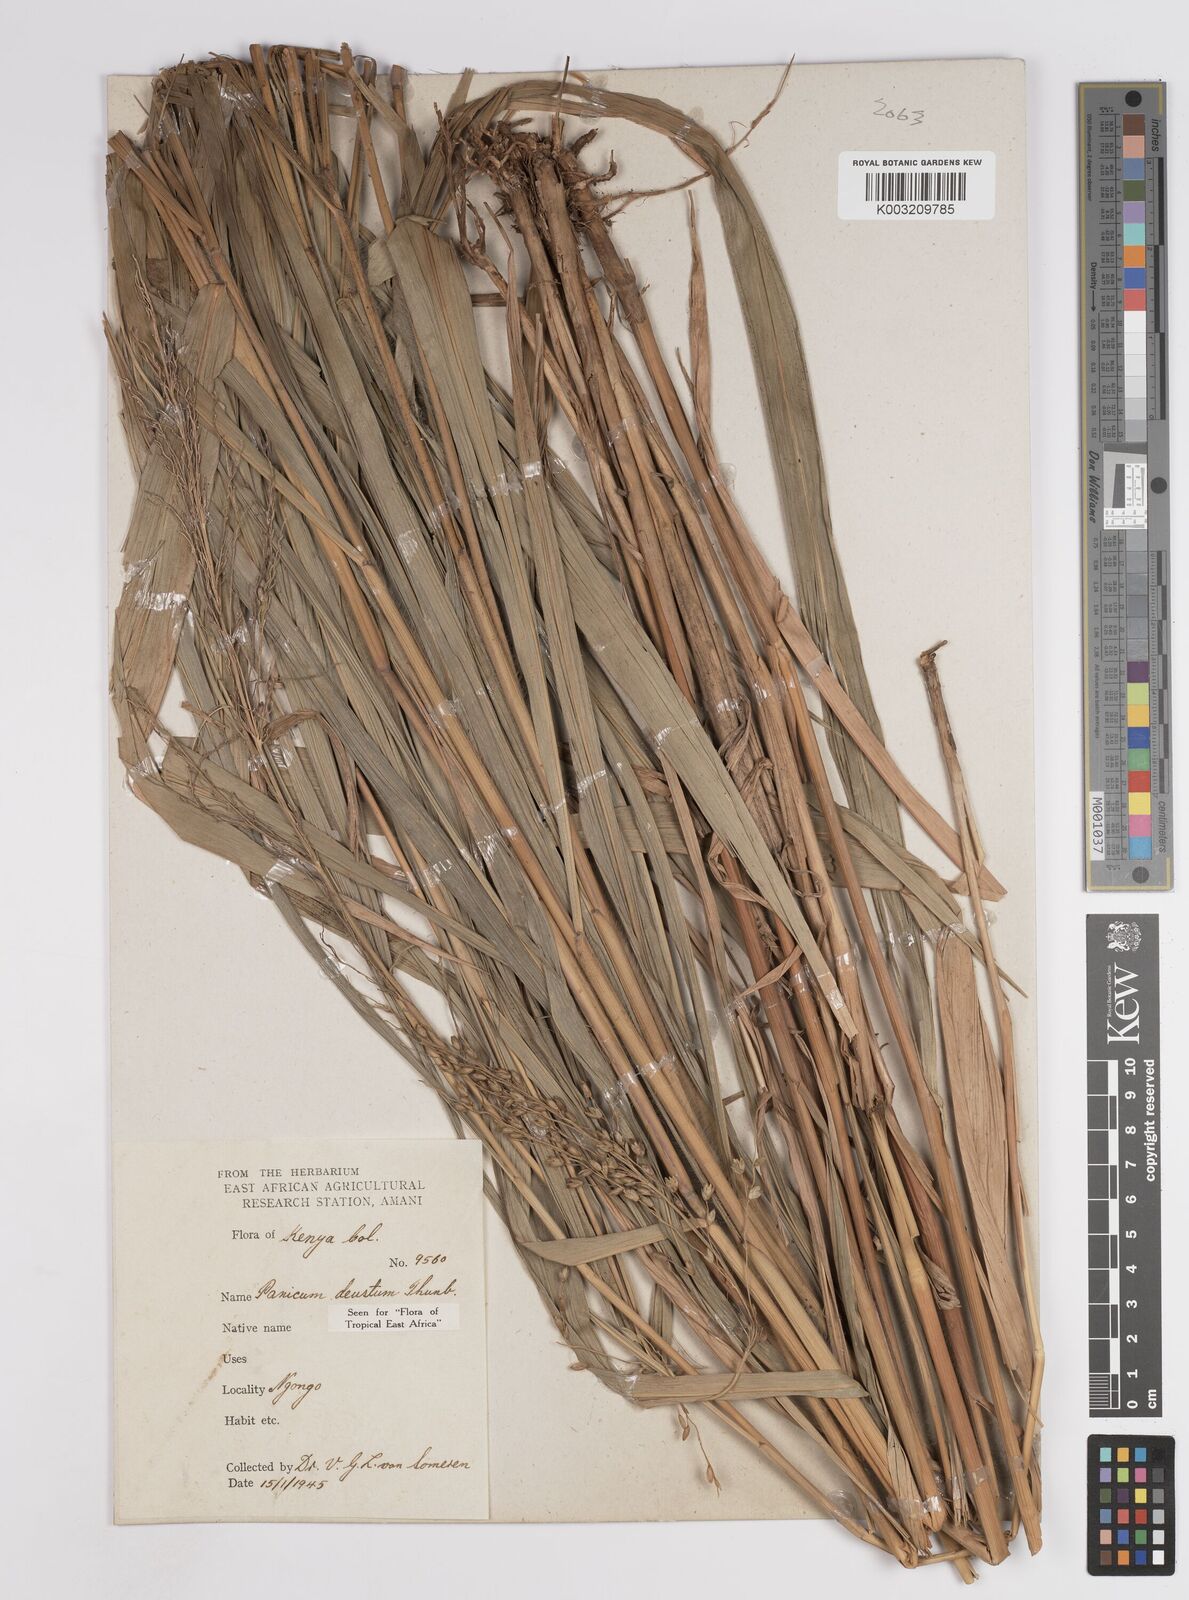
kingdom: Plantae
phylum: Tracheophyta
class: Liliopsida
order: Poales
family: Poaceae
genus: Panicum
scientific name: Panicum deustum
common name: Reed panicum
